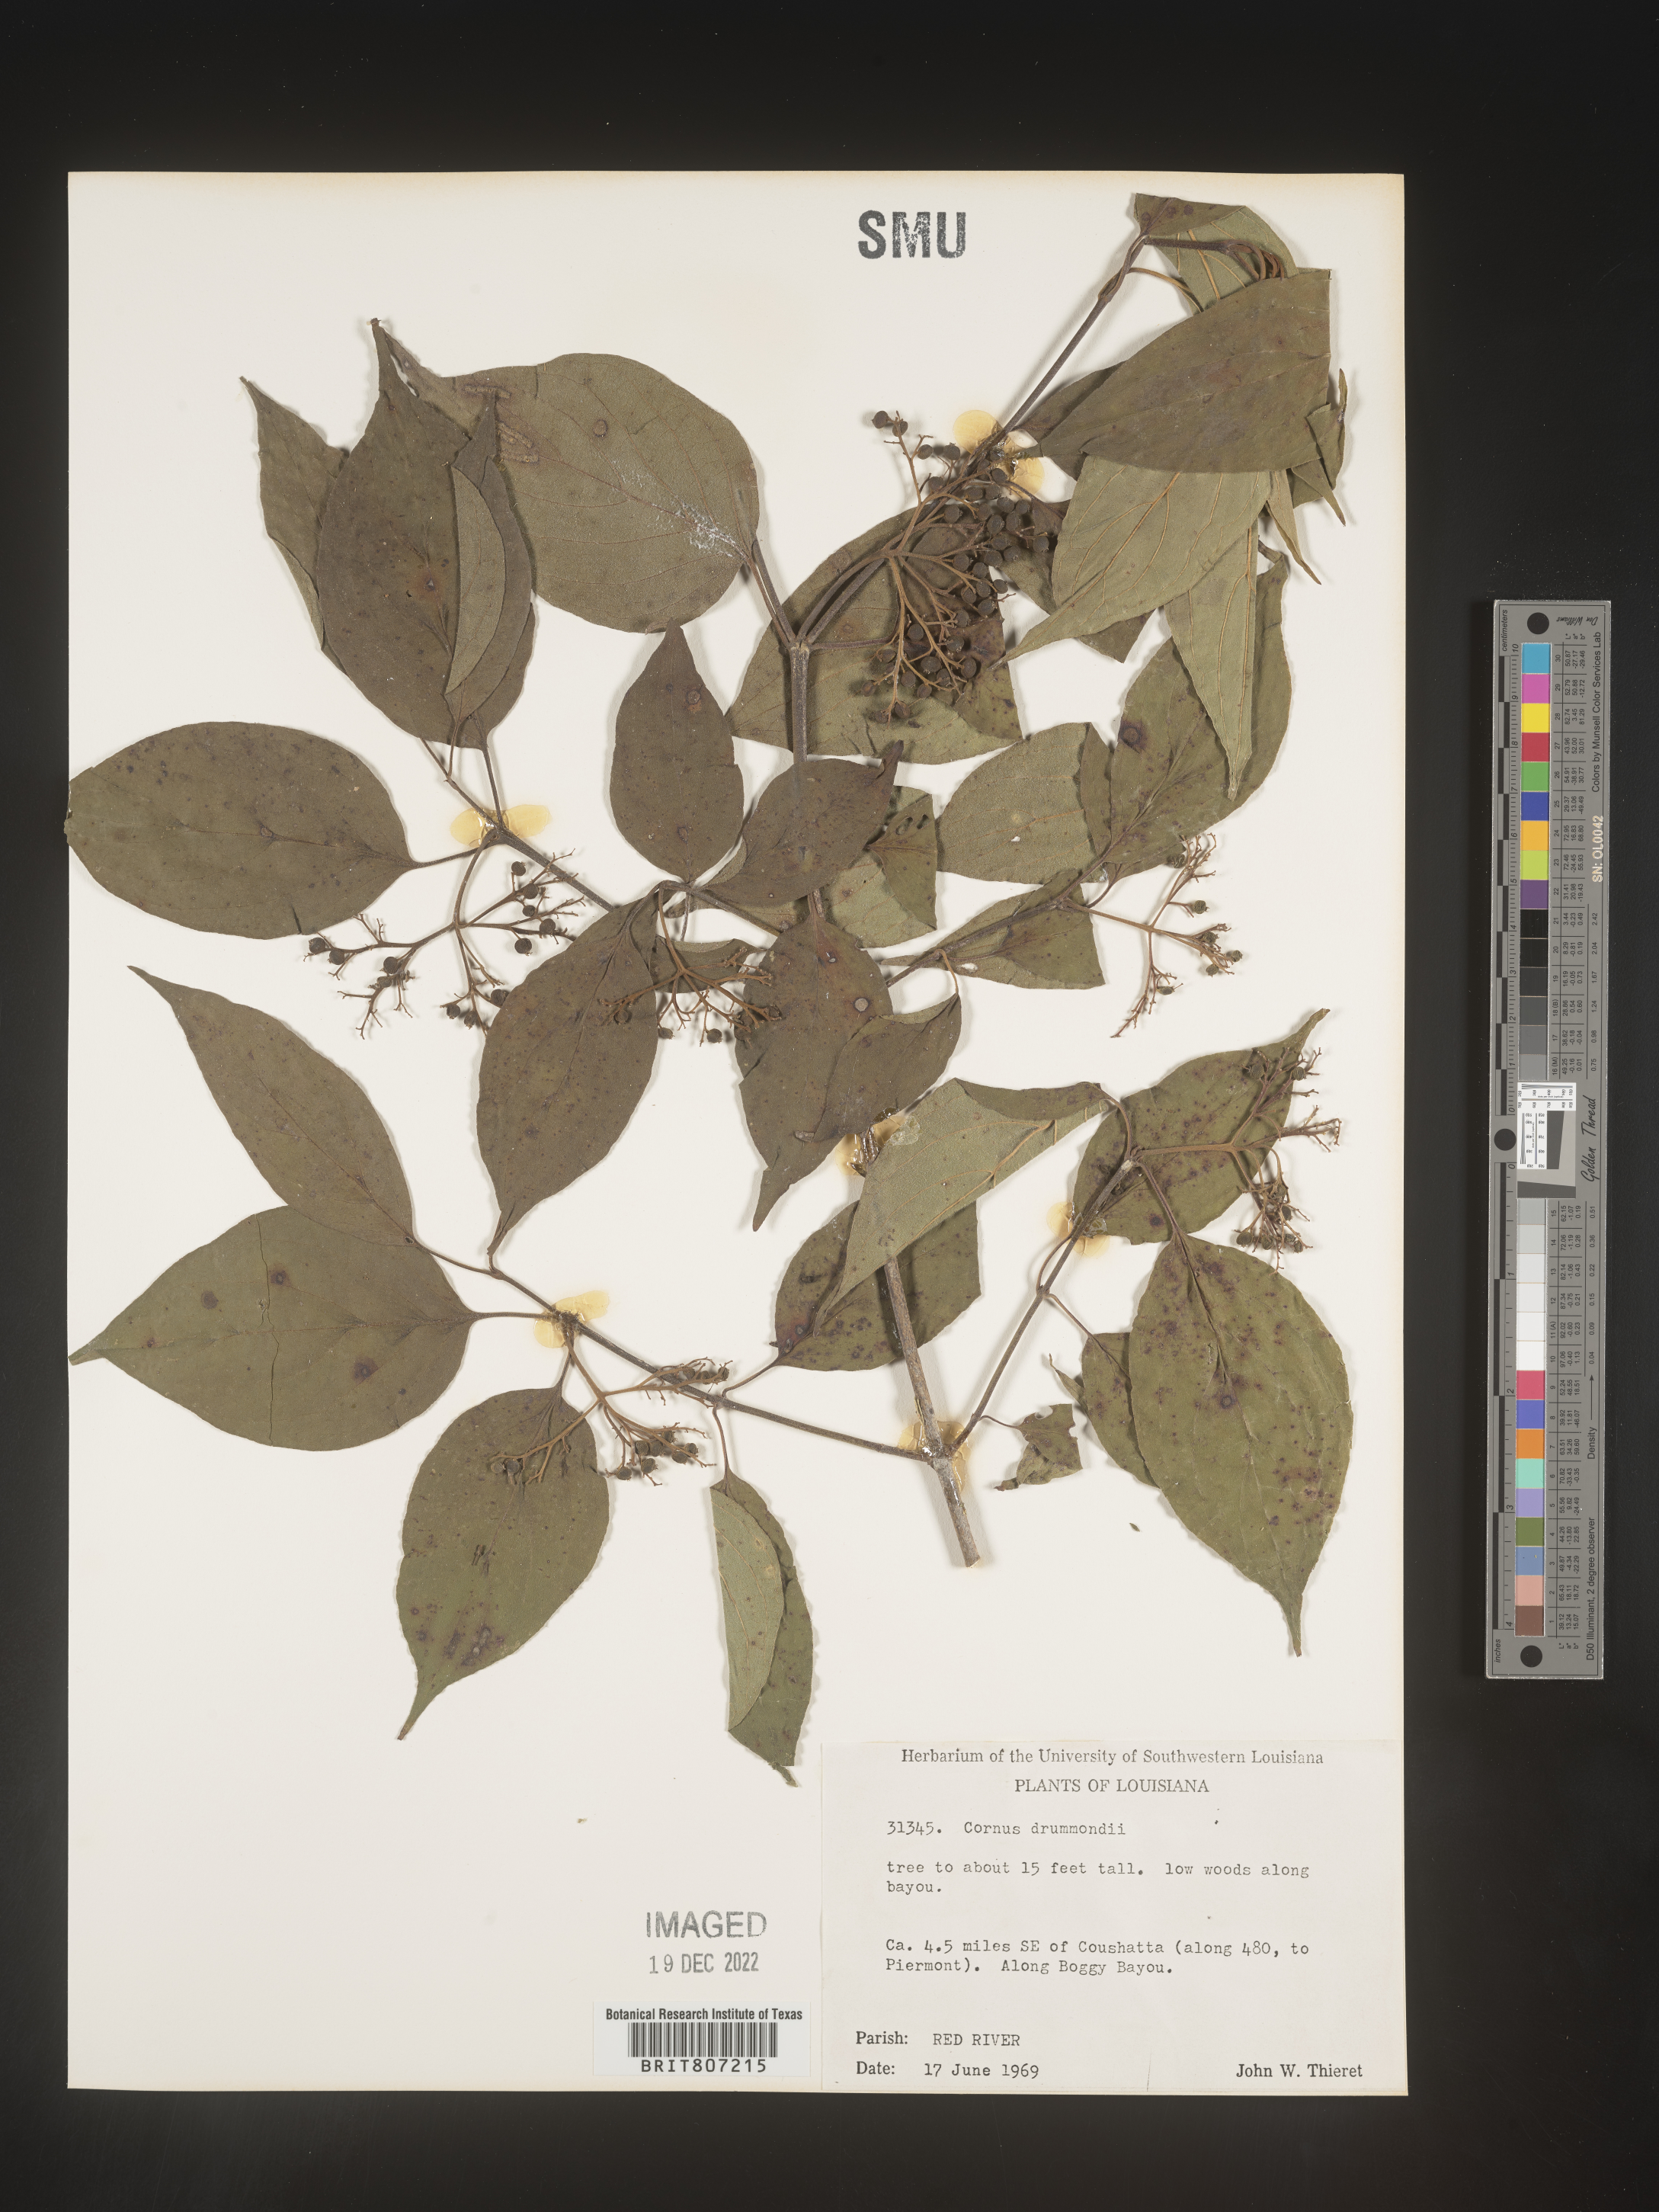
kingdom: Plantae
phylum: Tracheophyta
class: Magnoliopsida
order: Cornales
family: Cornaceae
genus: Cornus
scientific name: Cornus drummondii
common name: Rough-leaf dogwood
